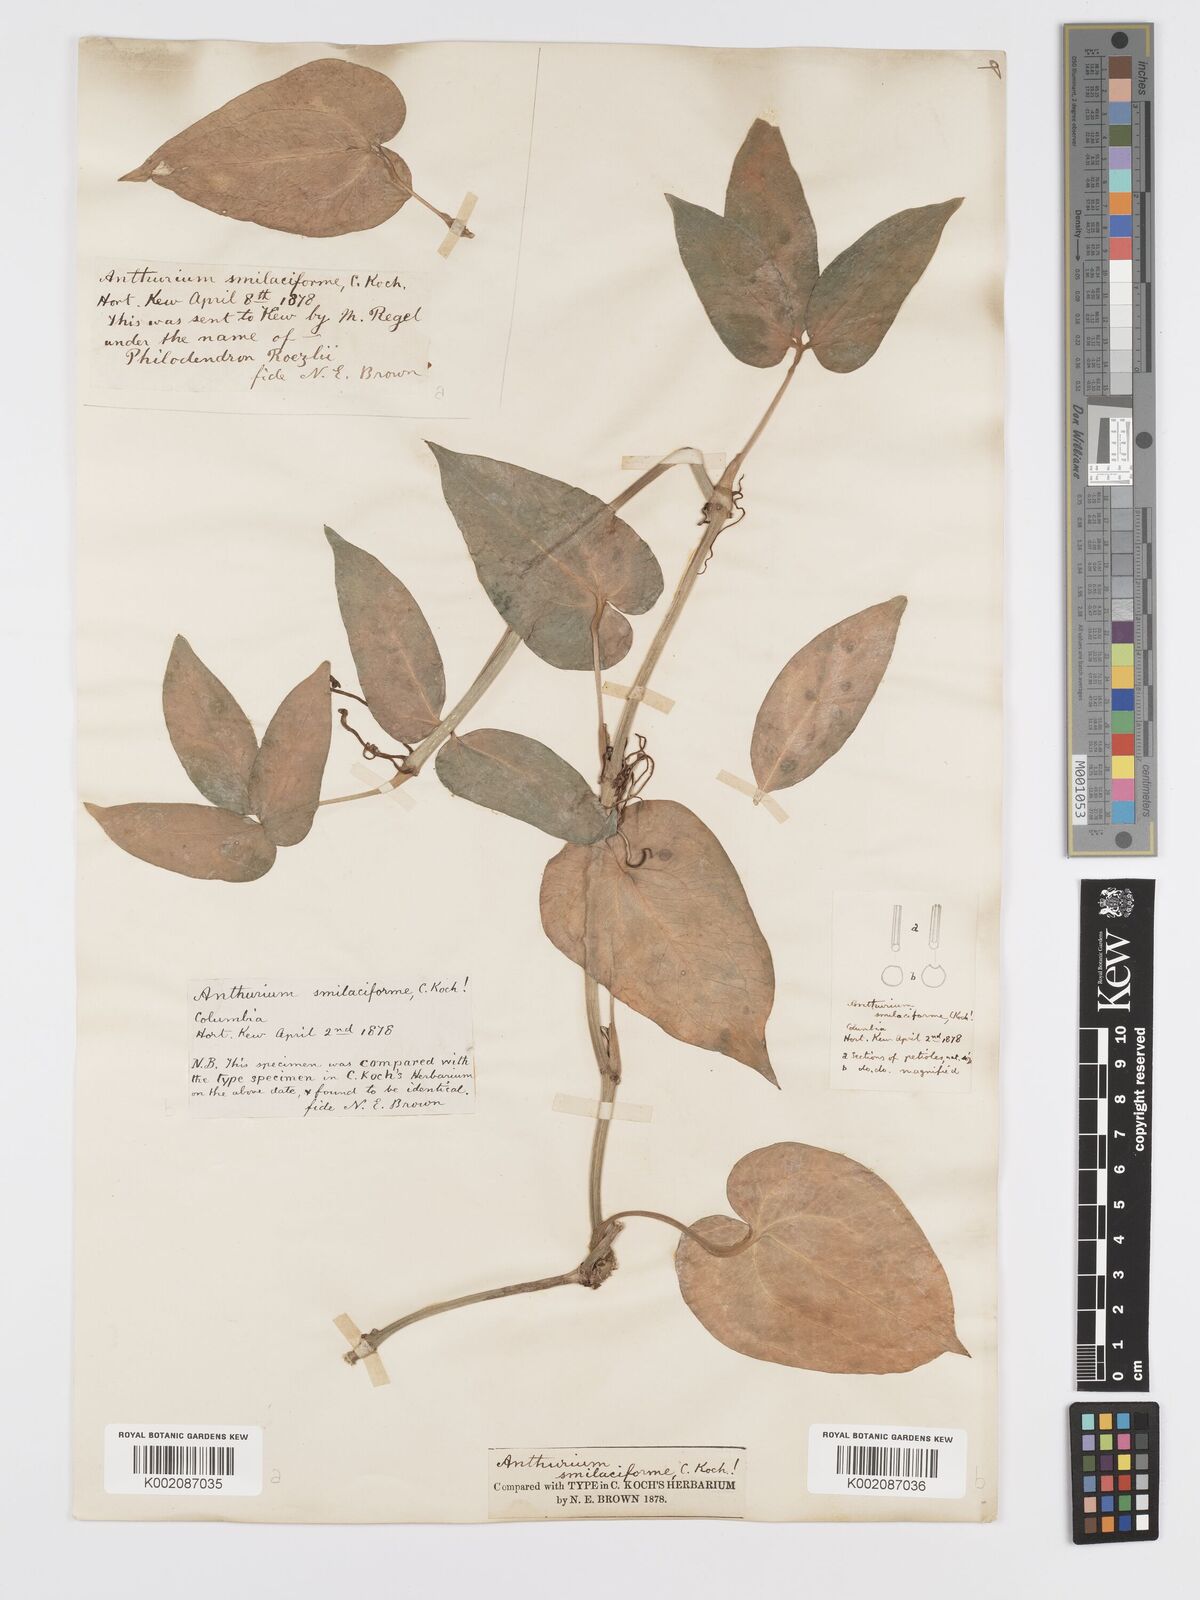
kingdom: Plantae
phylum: Tracheophyta
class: Liliopsida
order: Alismatales
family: Araceae
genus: Anthurium
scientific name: Anthurium pentaphyllum
